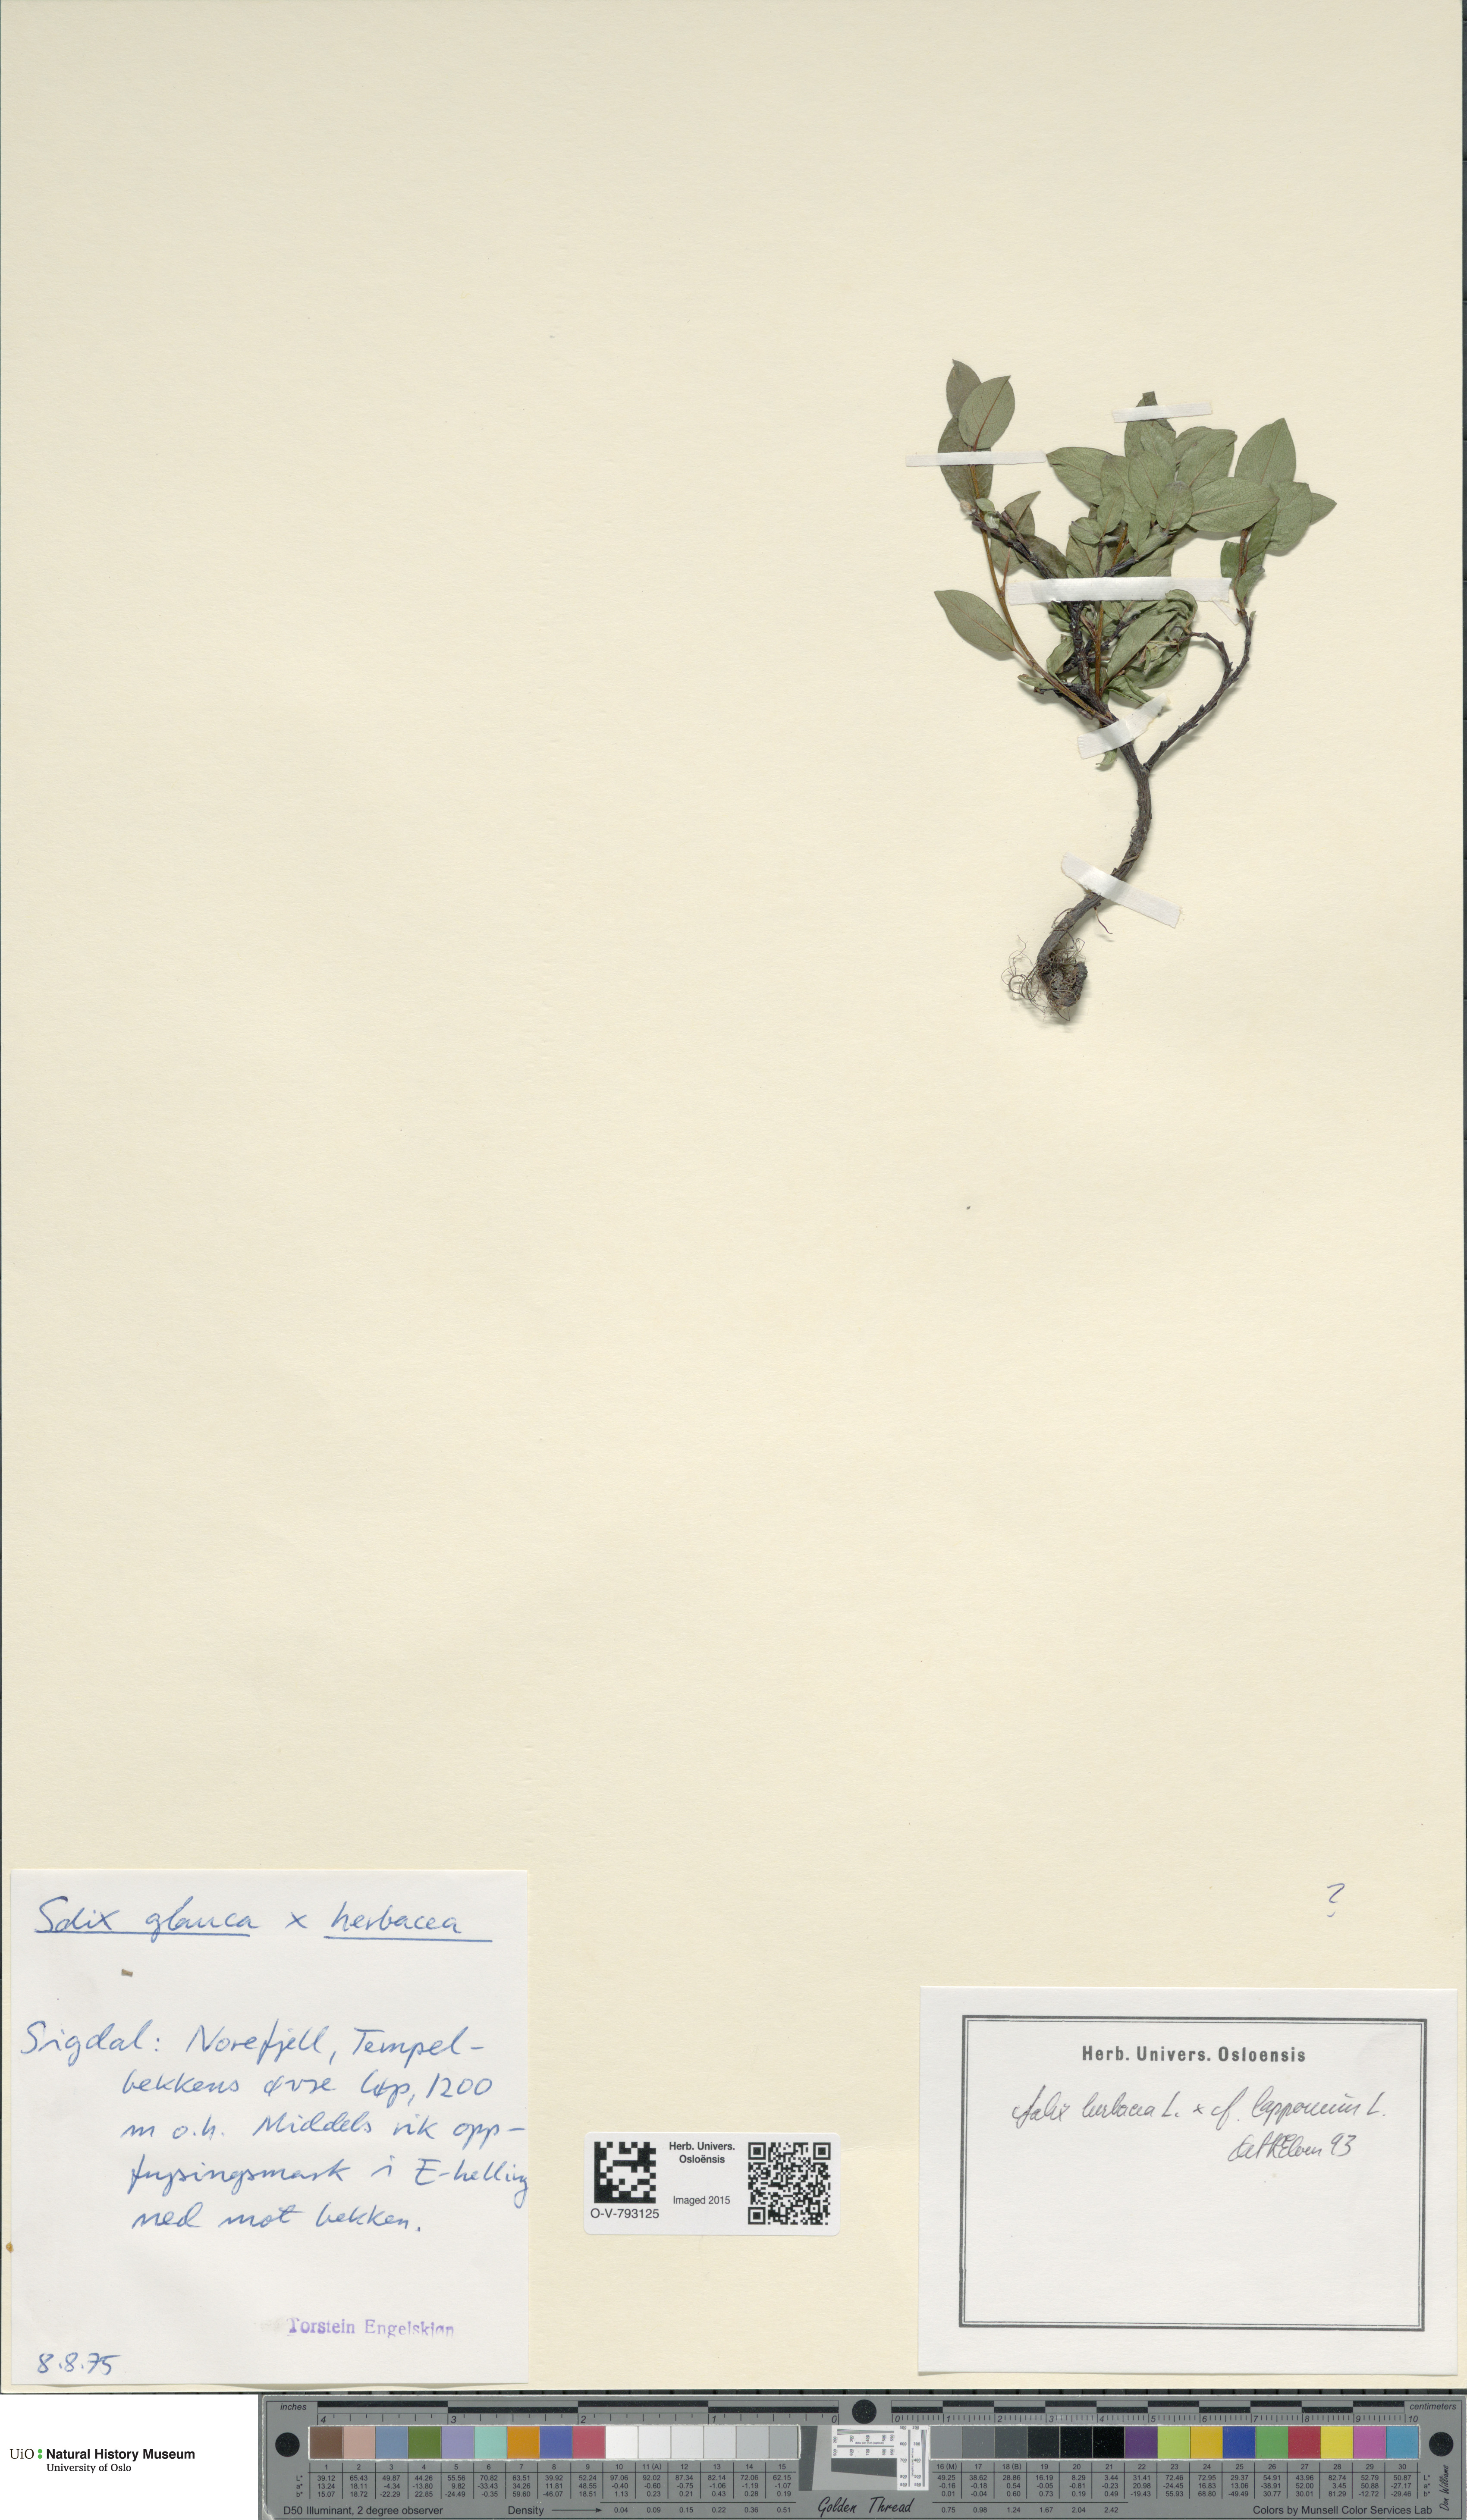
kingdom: Plantae
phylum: Tracheophyta
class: Magnoliopsida
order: Malpighiales
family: Salicaceae
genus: Salix
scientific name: Salix
